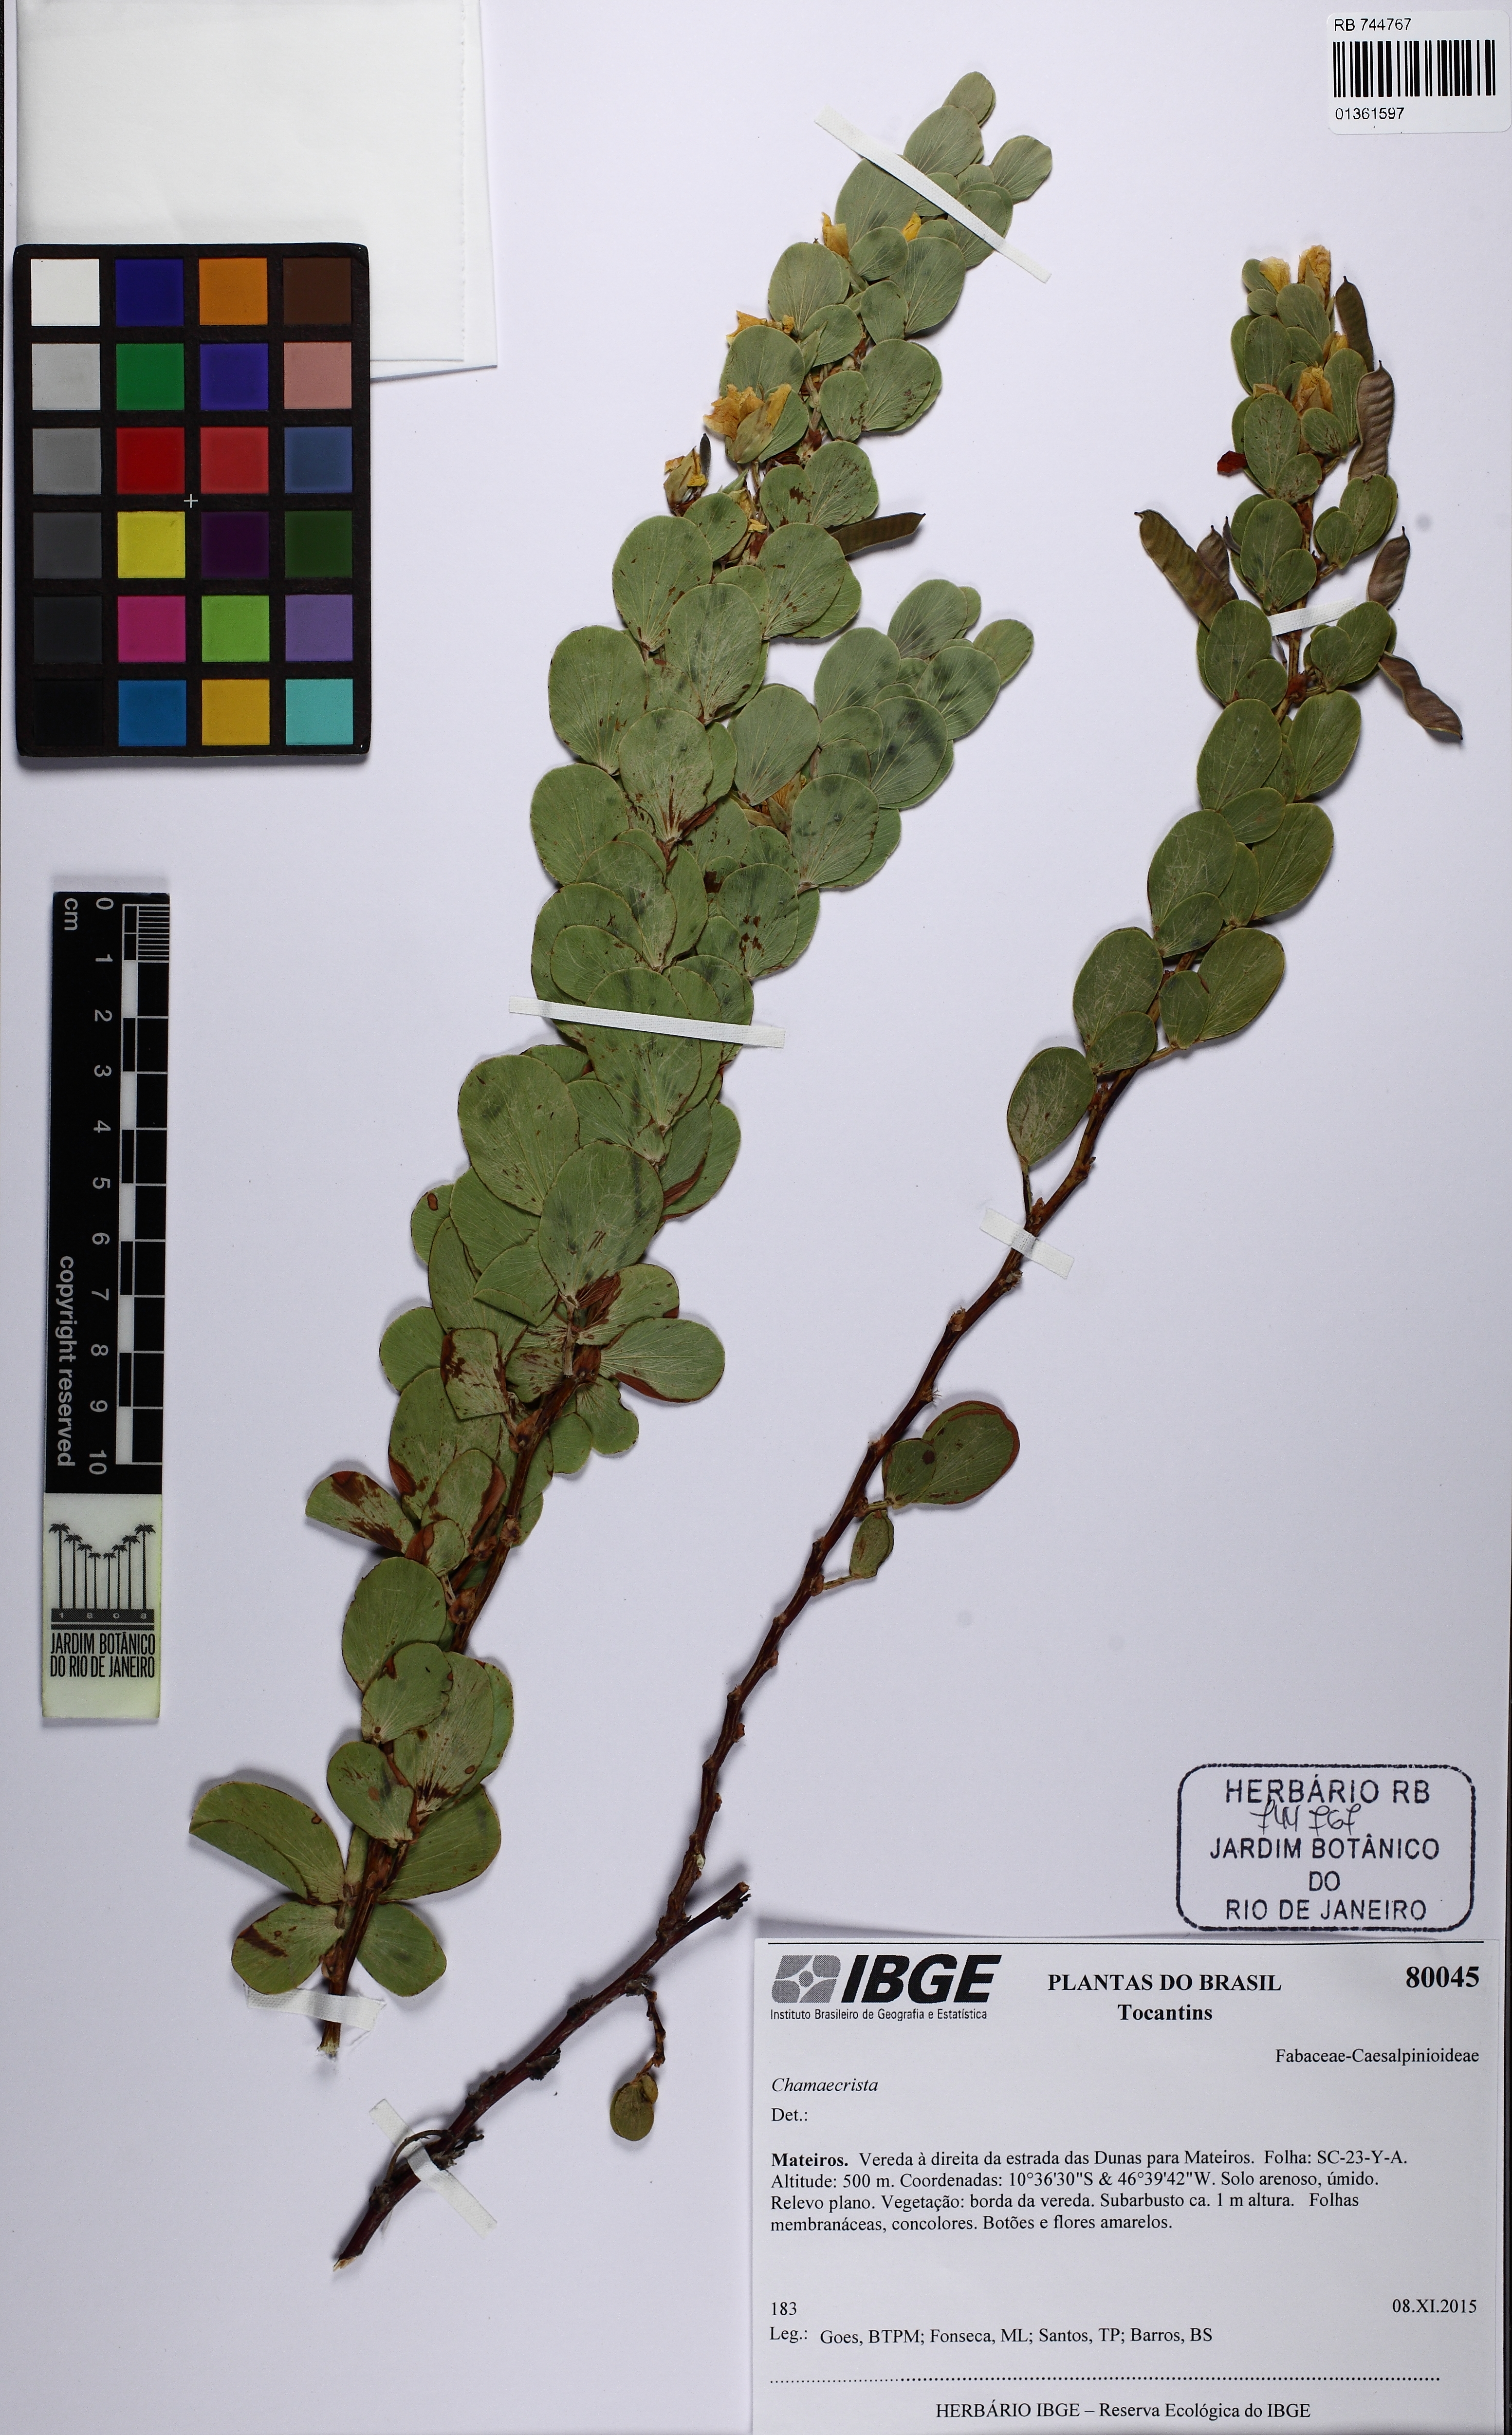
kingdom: Plantae
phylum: Tracheophyta
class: Magnoliopsida
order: Fabales
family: Fabaceae
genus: Chamaecrista
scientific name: Chamaecrista
